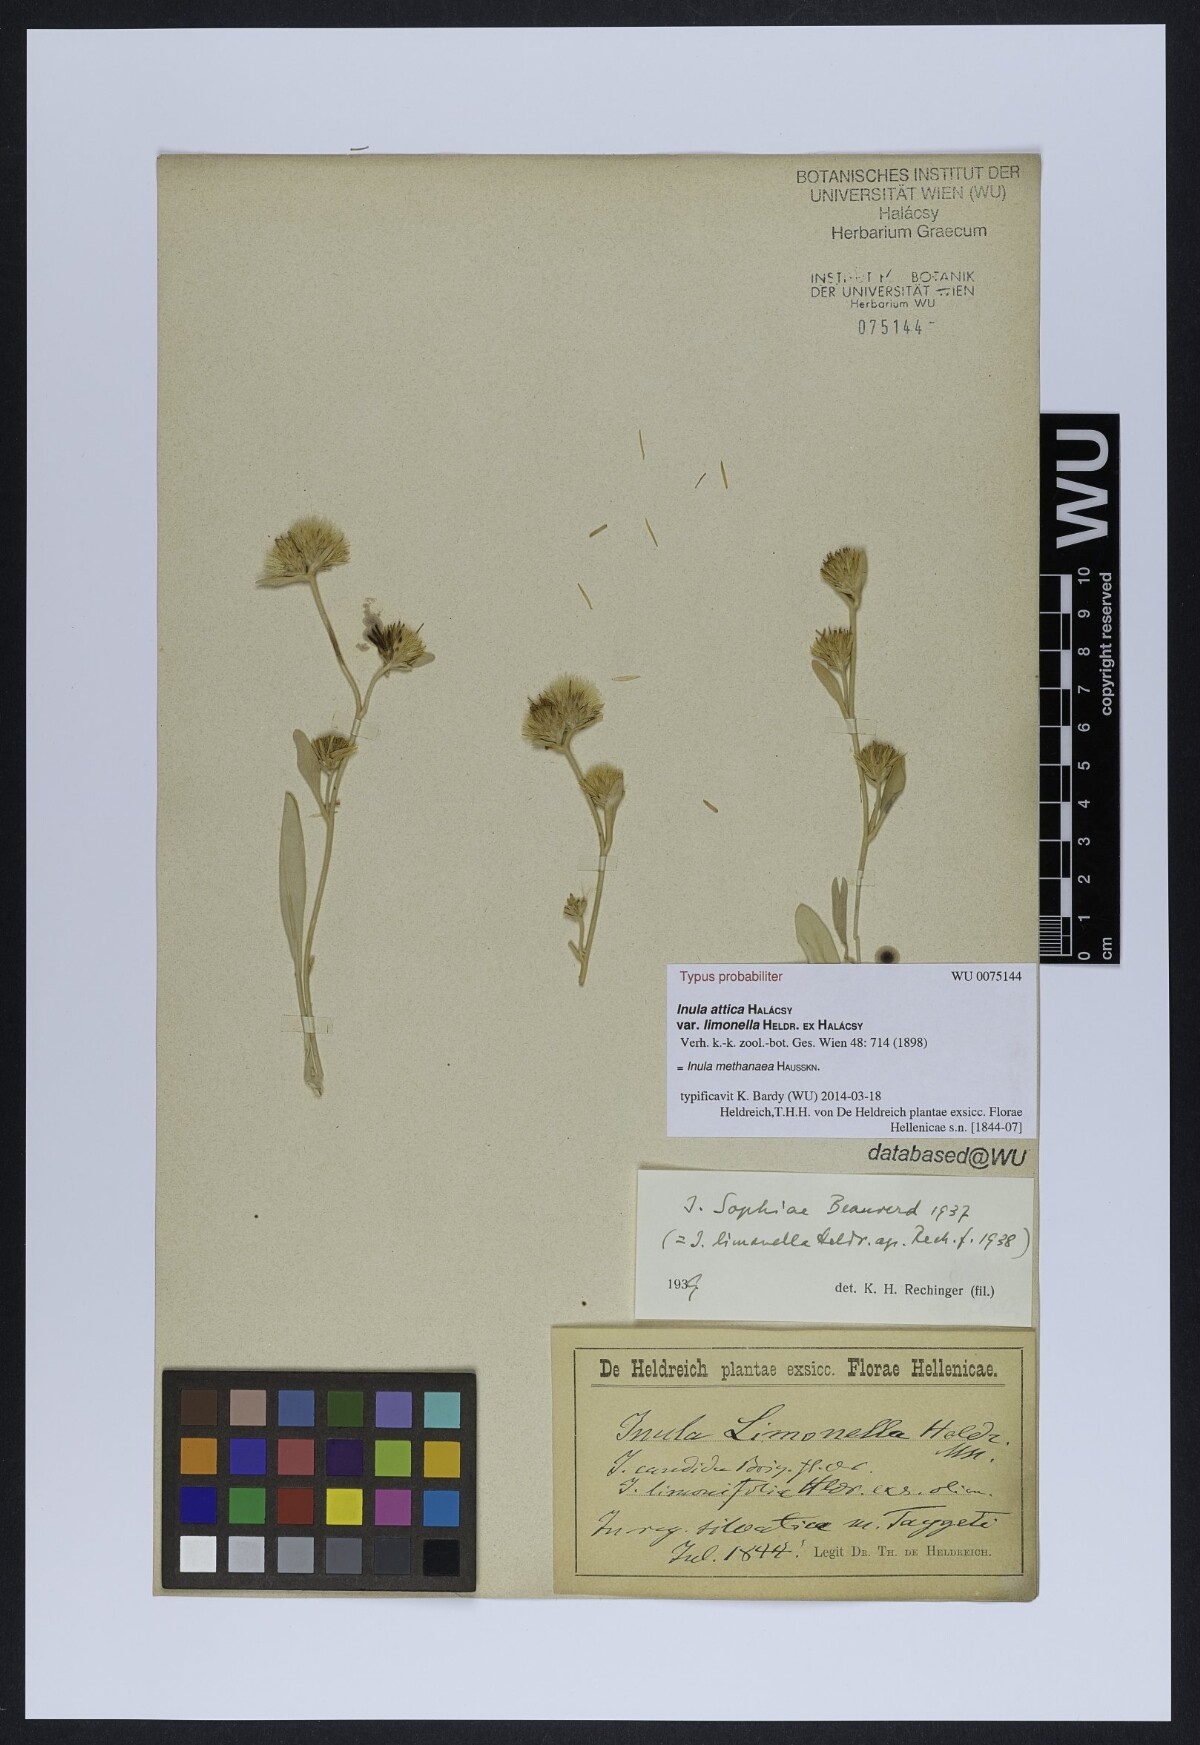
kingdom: Plantae
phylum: Tracheophyta
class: Magnoliopsida
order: Asterales
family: Asteraceae
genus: Inula
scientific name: Inula candida
